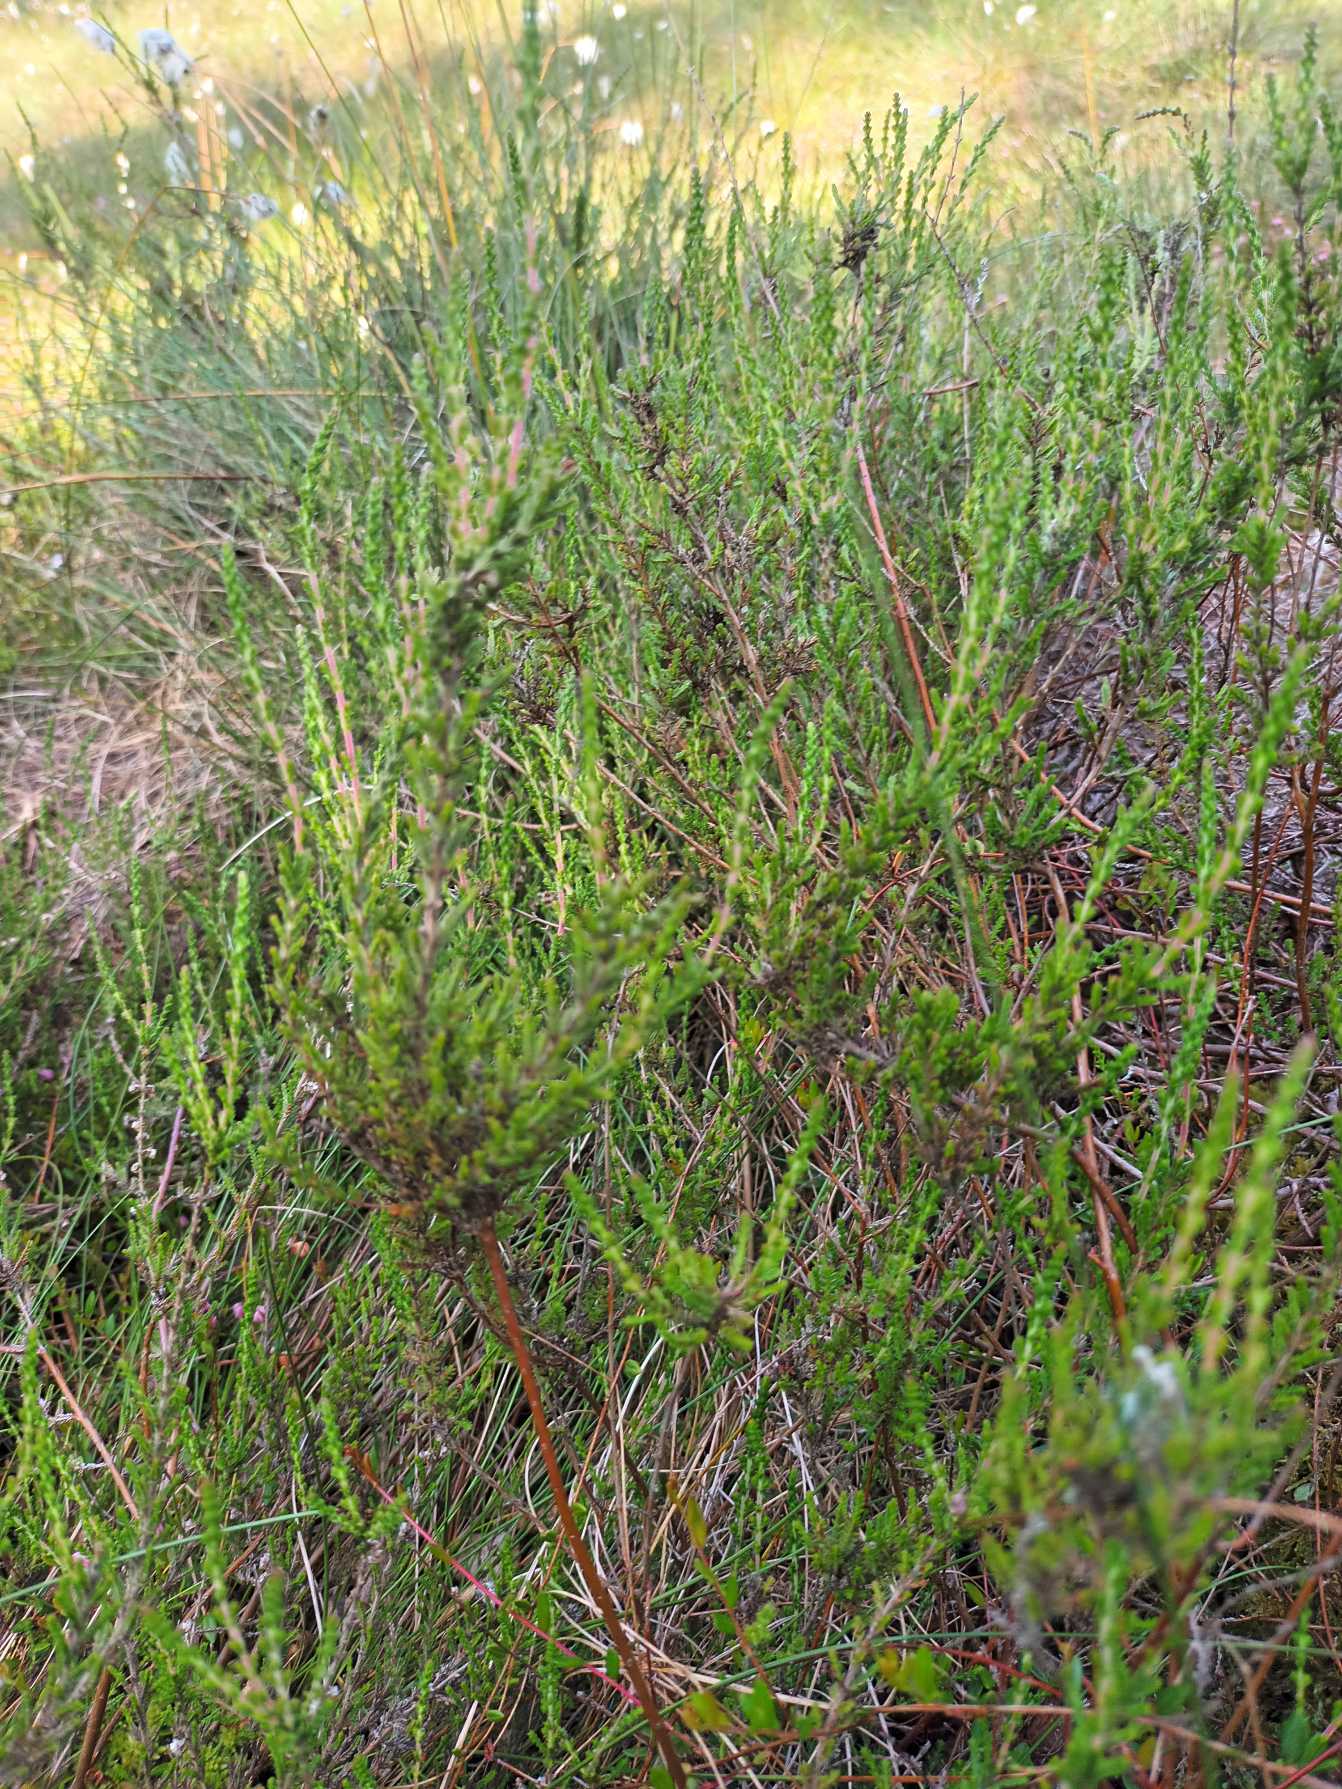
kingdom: Plantae
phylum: Tracheophyta
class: Magnoliopsida
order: Ericales
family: Ericaceae
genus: Calluna
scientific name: Calluna vulgaris
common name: Hedelyng
